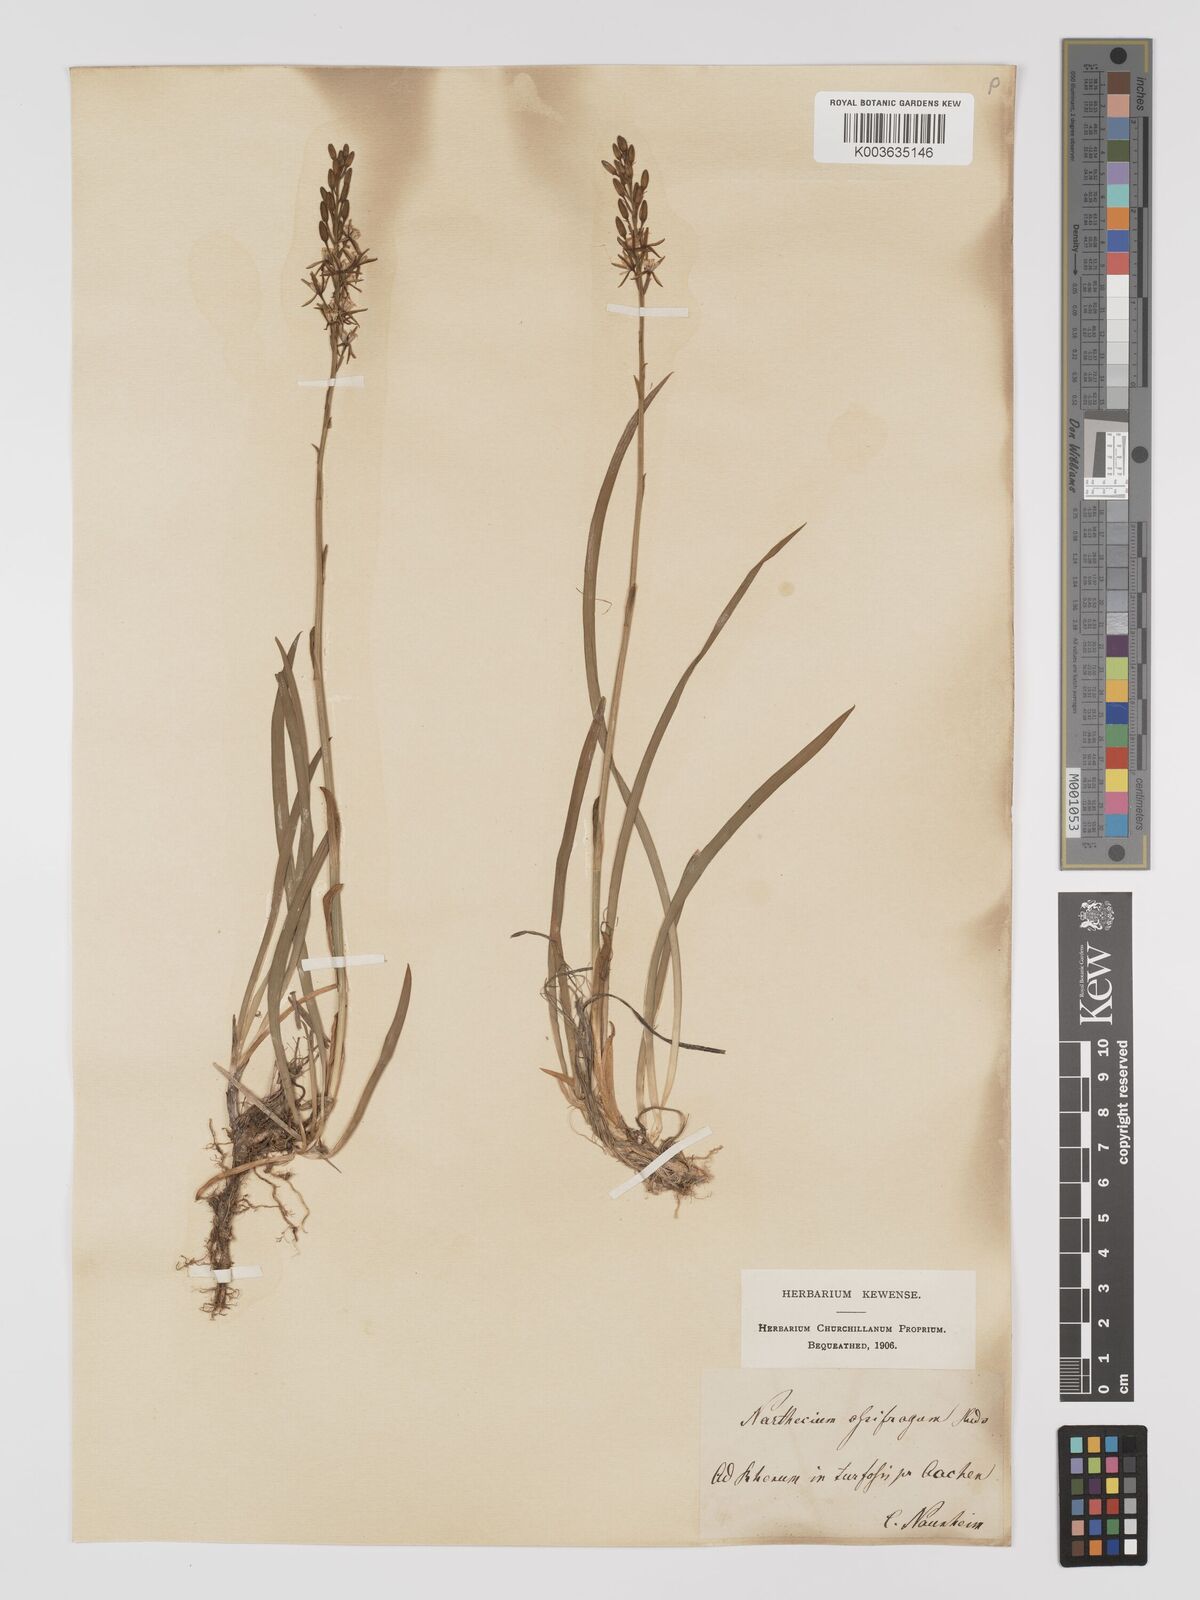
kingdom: Plantae
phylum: Tracheophyta
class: Liliopsida
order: Dioscoreales
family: Nartheciaceae
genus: Narthecium
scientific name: Narthecium ossifragum
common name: Bog asphodel
